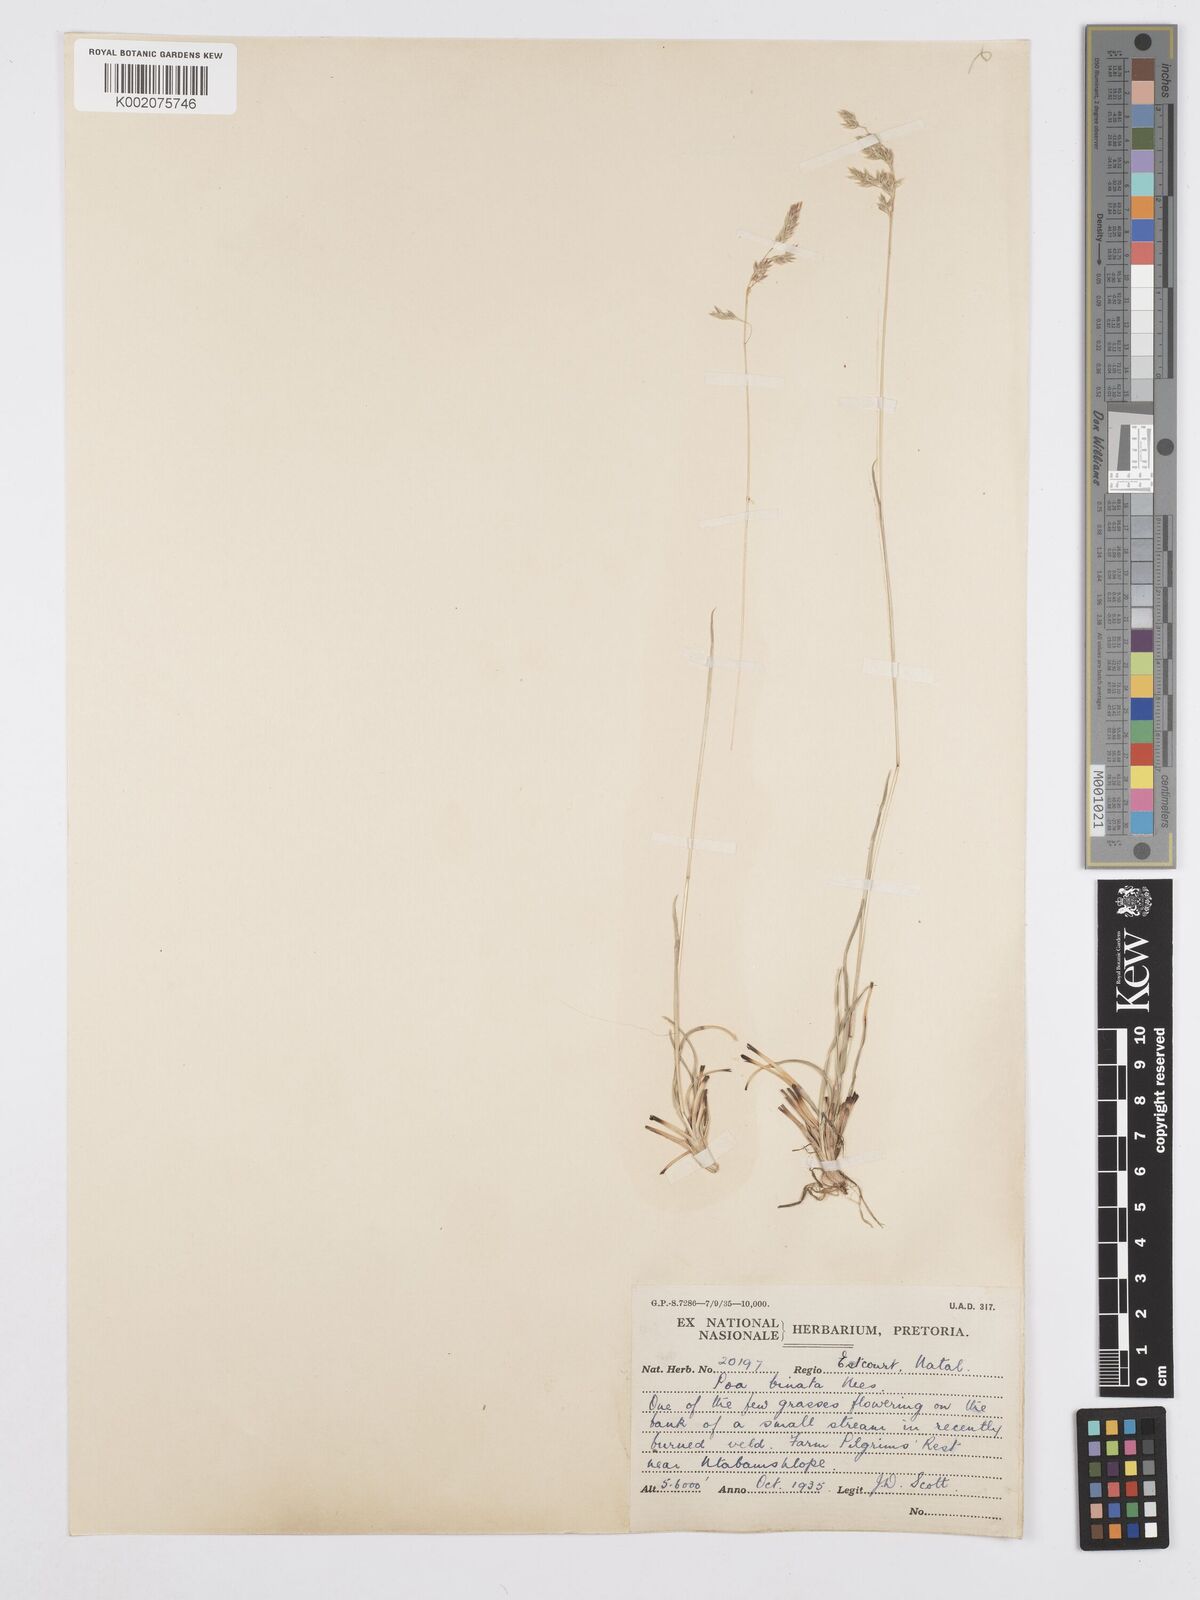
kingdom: Plantae
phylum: Tracheophyta
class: Liliopsida
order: Poales
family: Poaceae
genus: Poa
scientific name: Poa binata
